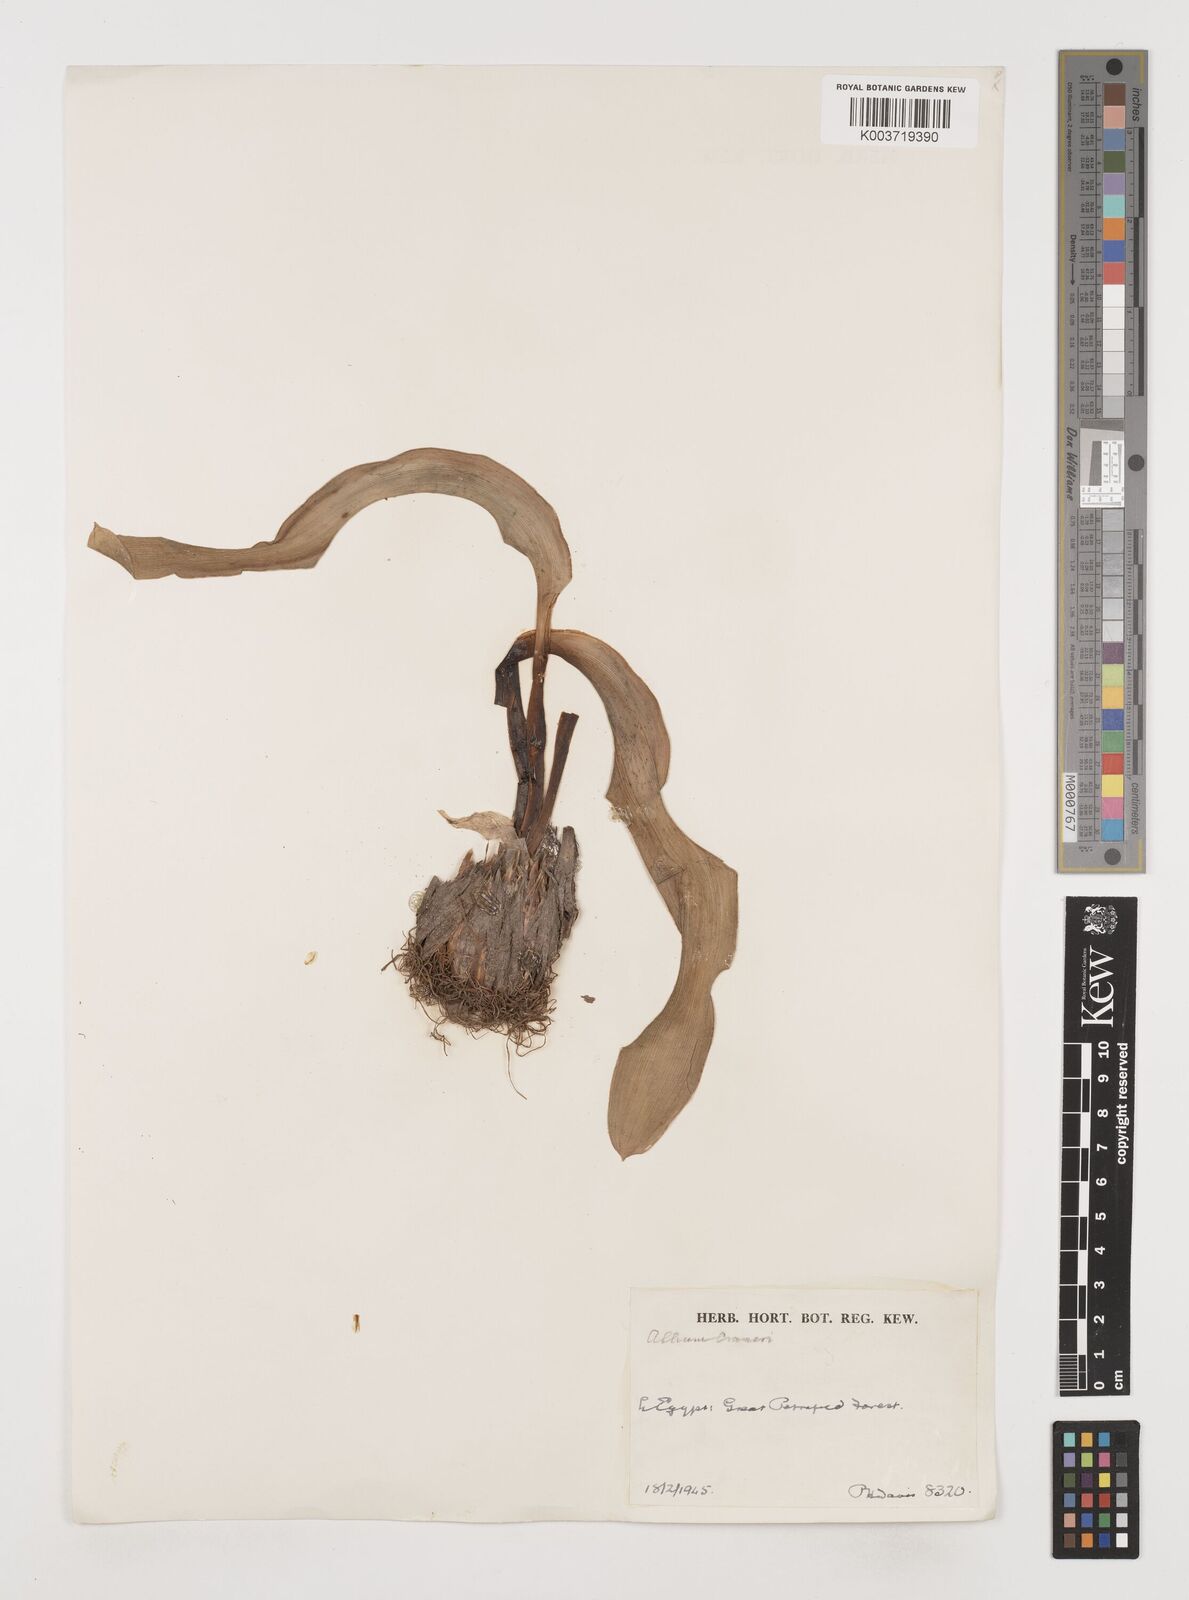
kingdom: Plantae
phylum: Tracheophyta
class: Liliopsida
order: Asparagales
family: Amaryllidaceae
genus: Allium
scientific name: Allium crameri
